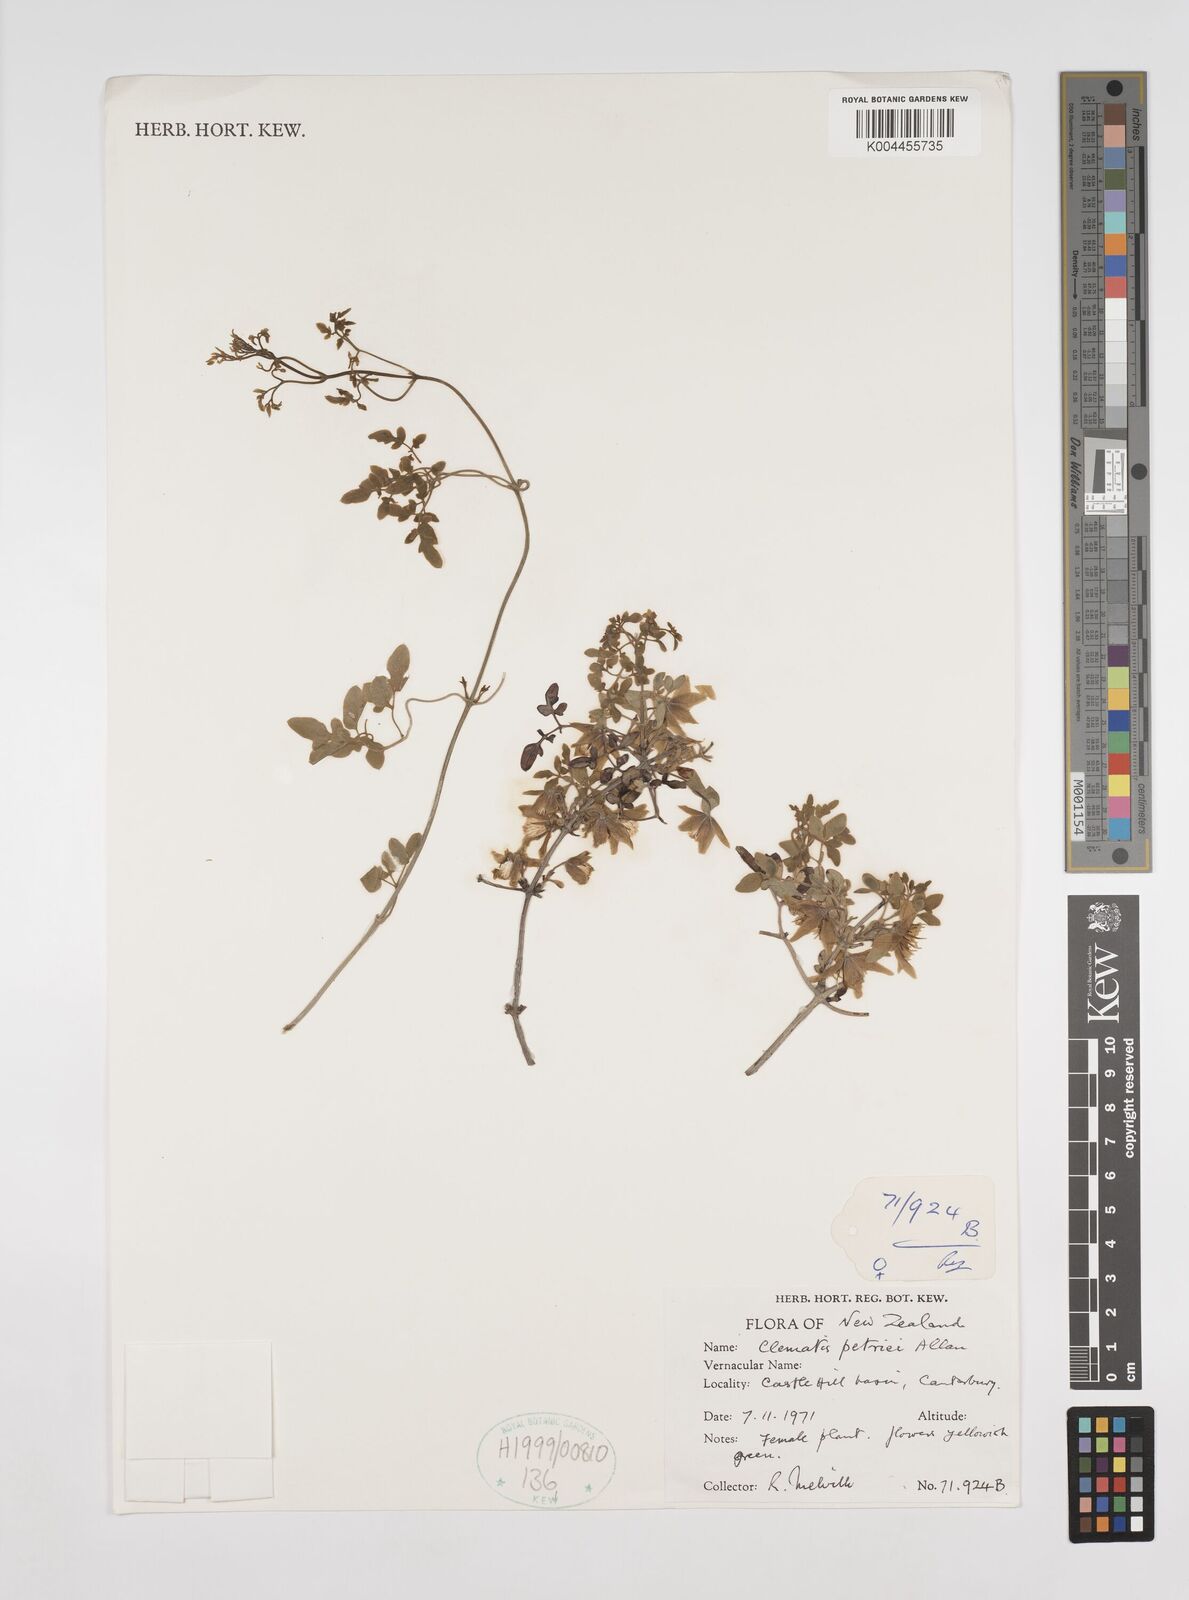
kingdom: Plantae
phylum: Tracheophyta
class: Magnoliopsida
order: Ranunculales
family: Ranunculaceae
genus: Clematis
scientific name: Clematis petriei
